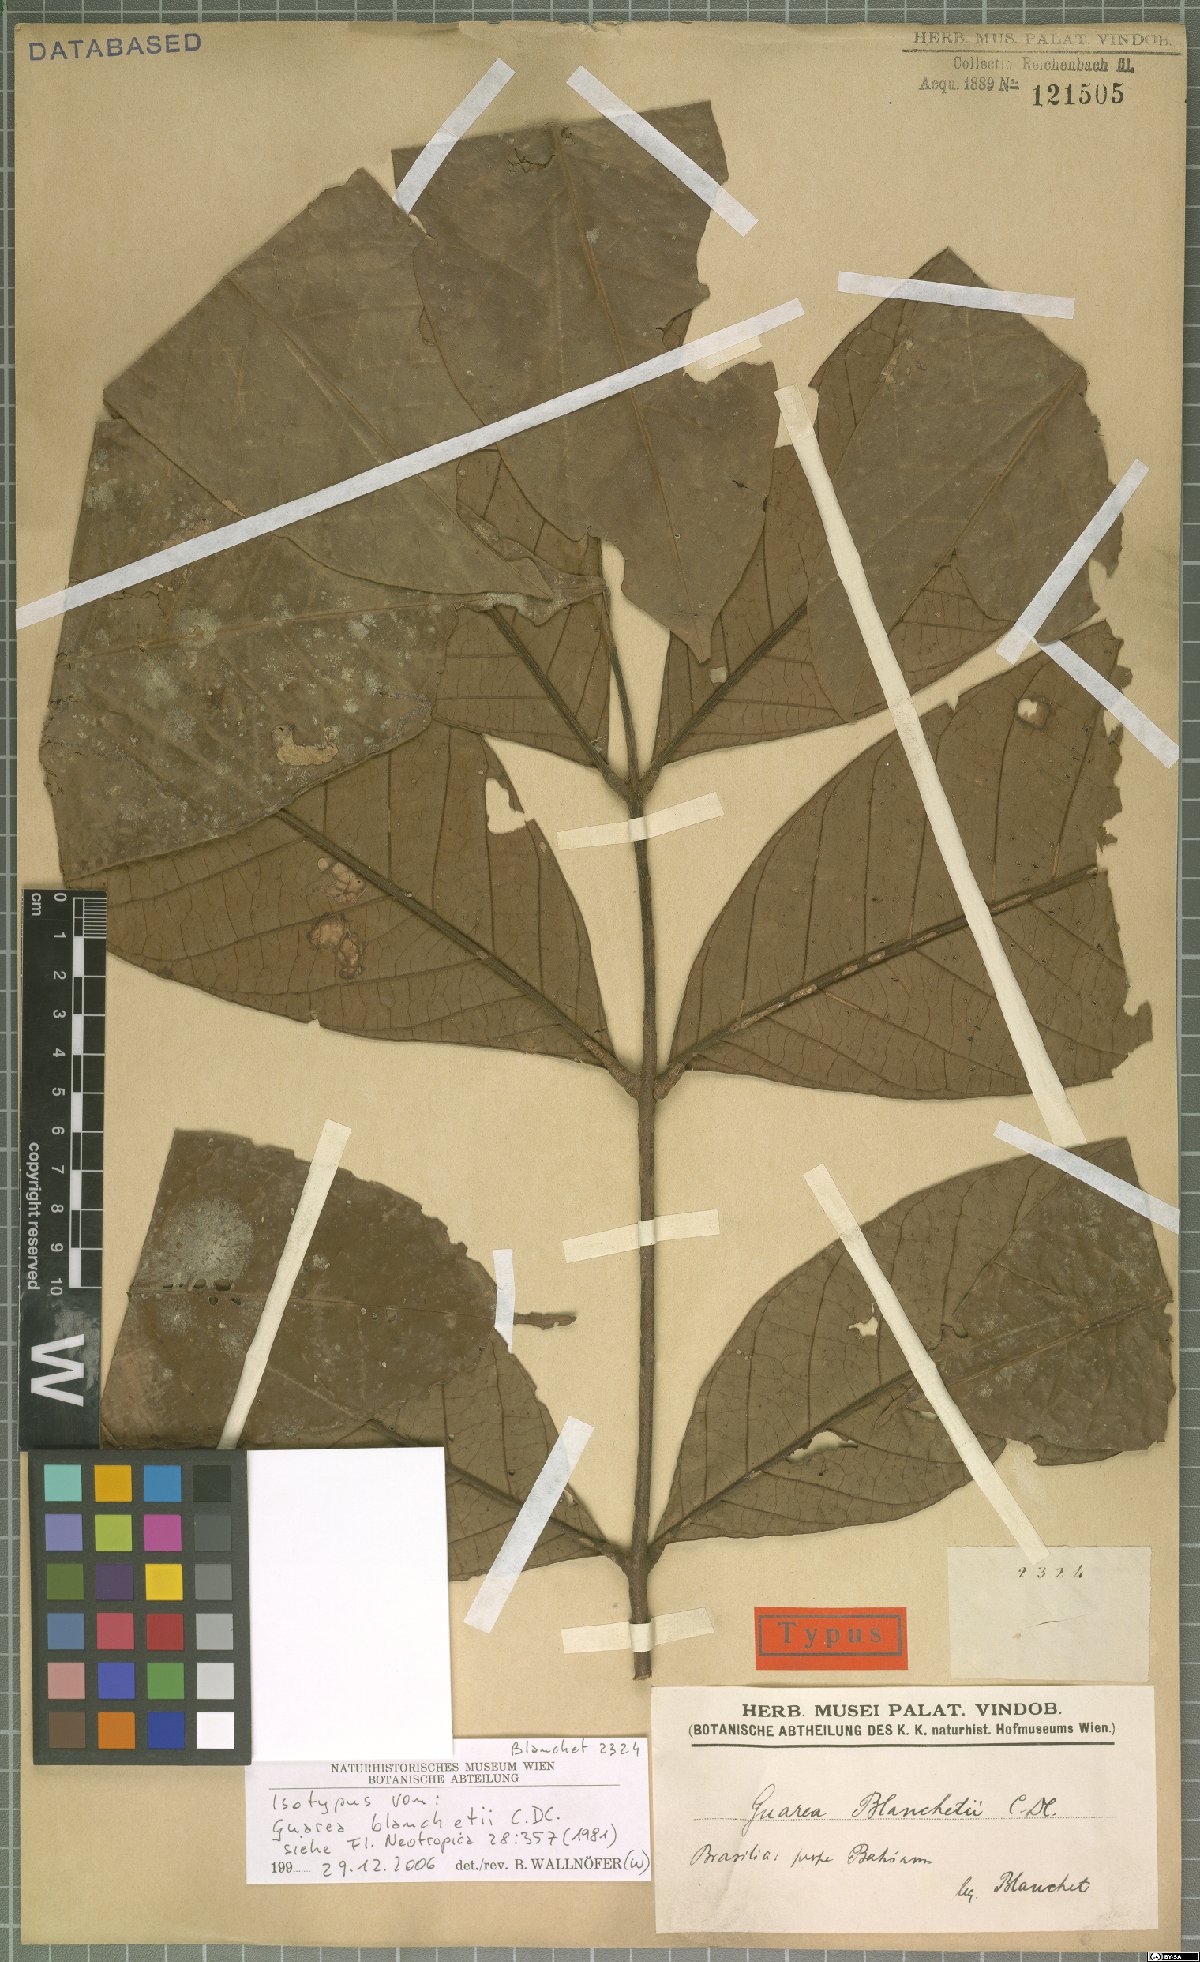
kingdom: Plantae
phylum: Tracheophyta
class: Magnoliopsida
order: Sapindales
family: Meliaceae
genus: Guarea
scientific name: Guarea blanchetii
